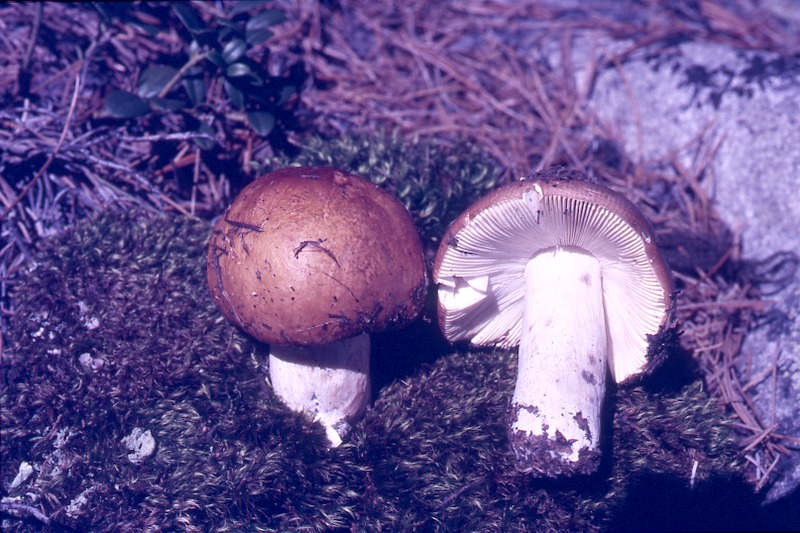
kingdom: Fungi
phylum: Basidiomycota
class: Agaricomycetes
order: Russulales
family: Russulaceae
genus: Russula
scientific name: Russula decolorans
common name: Copper brittlegill
